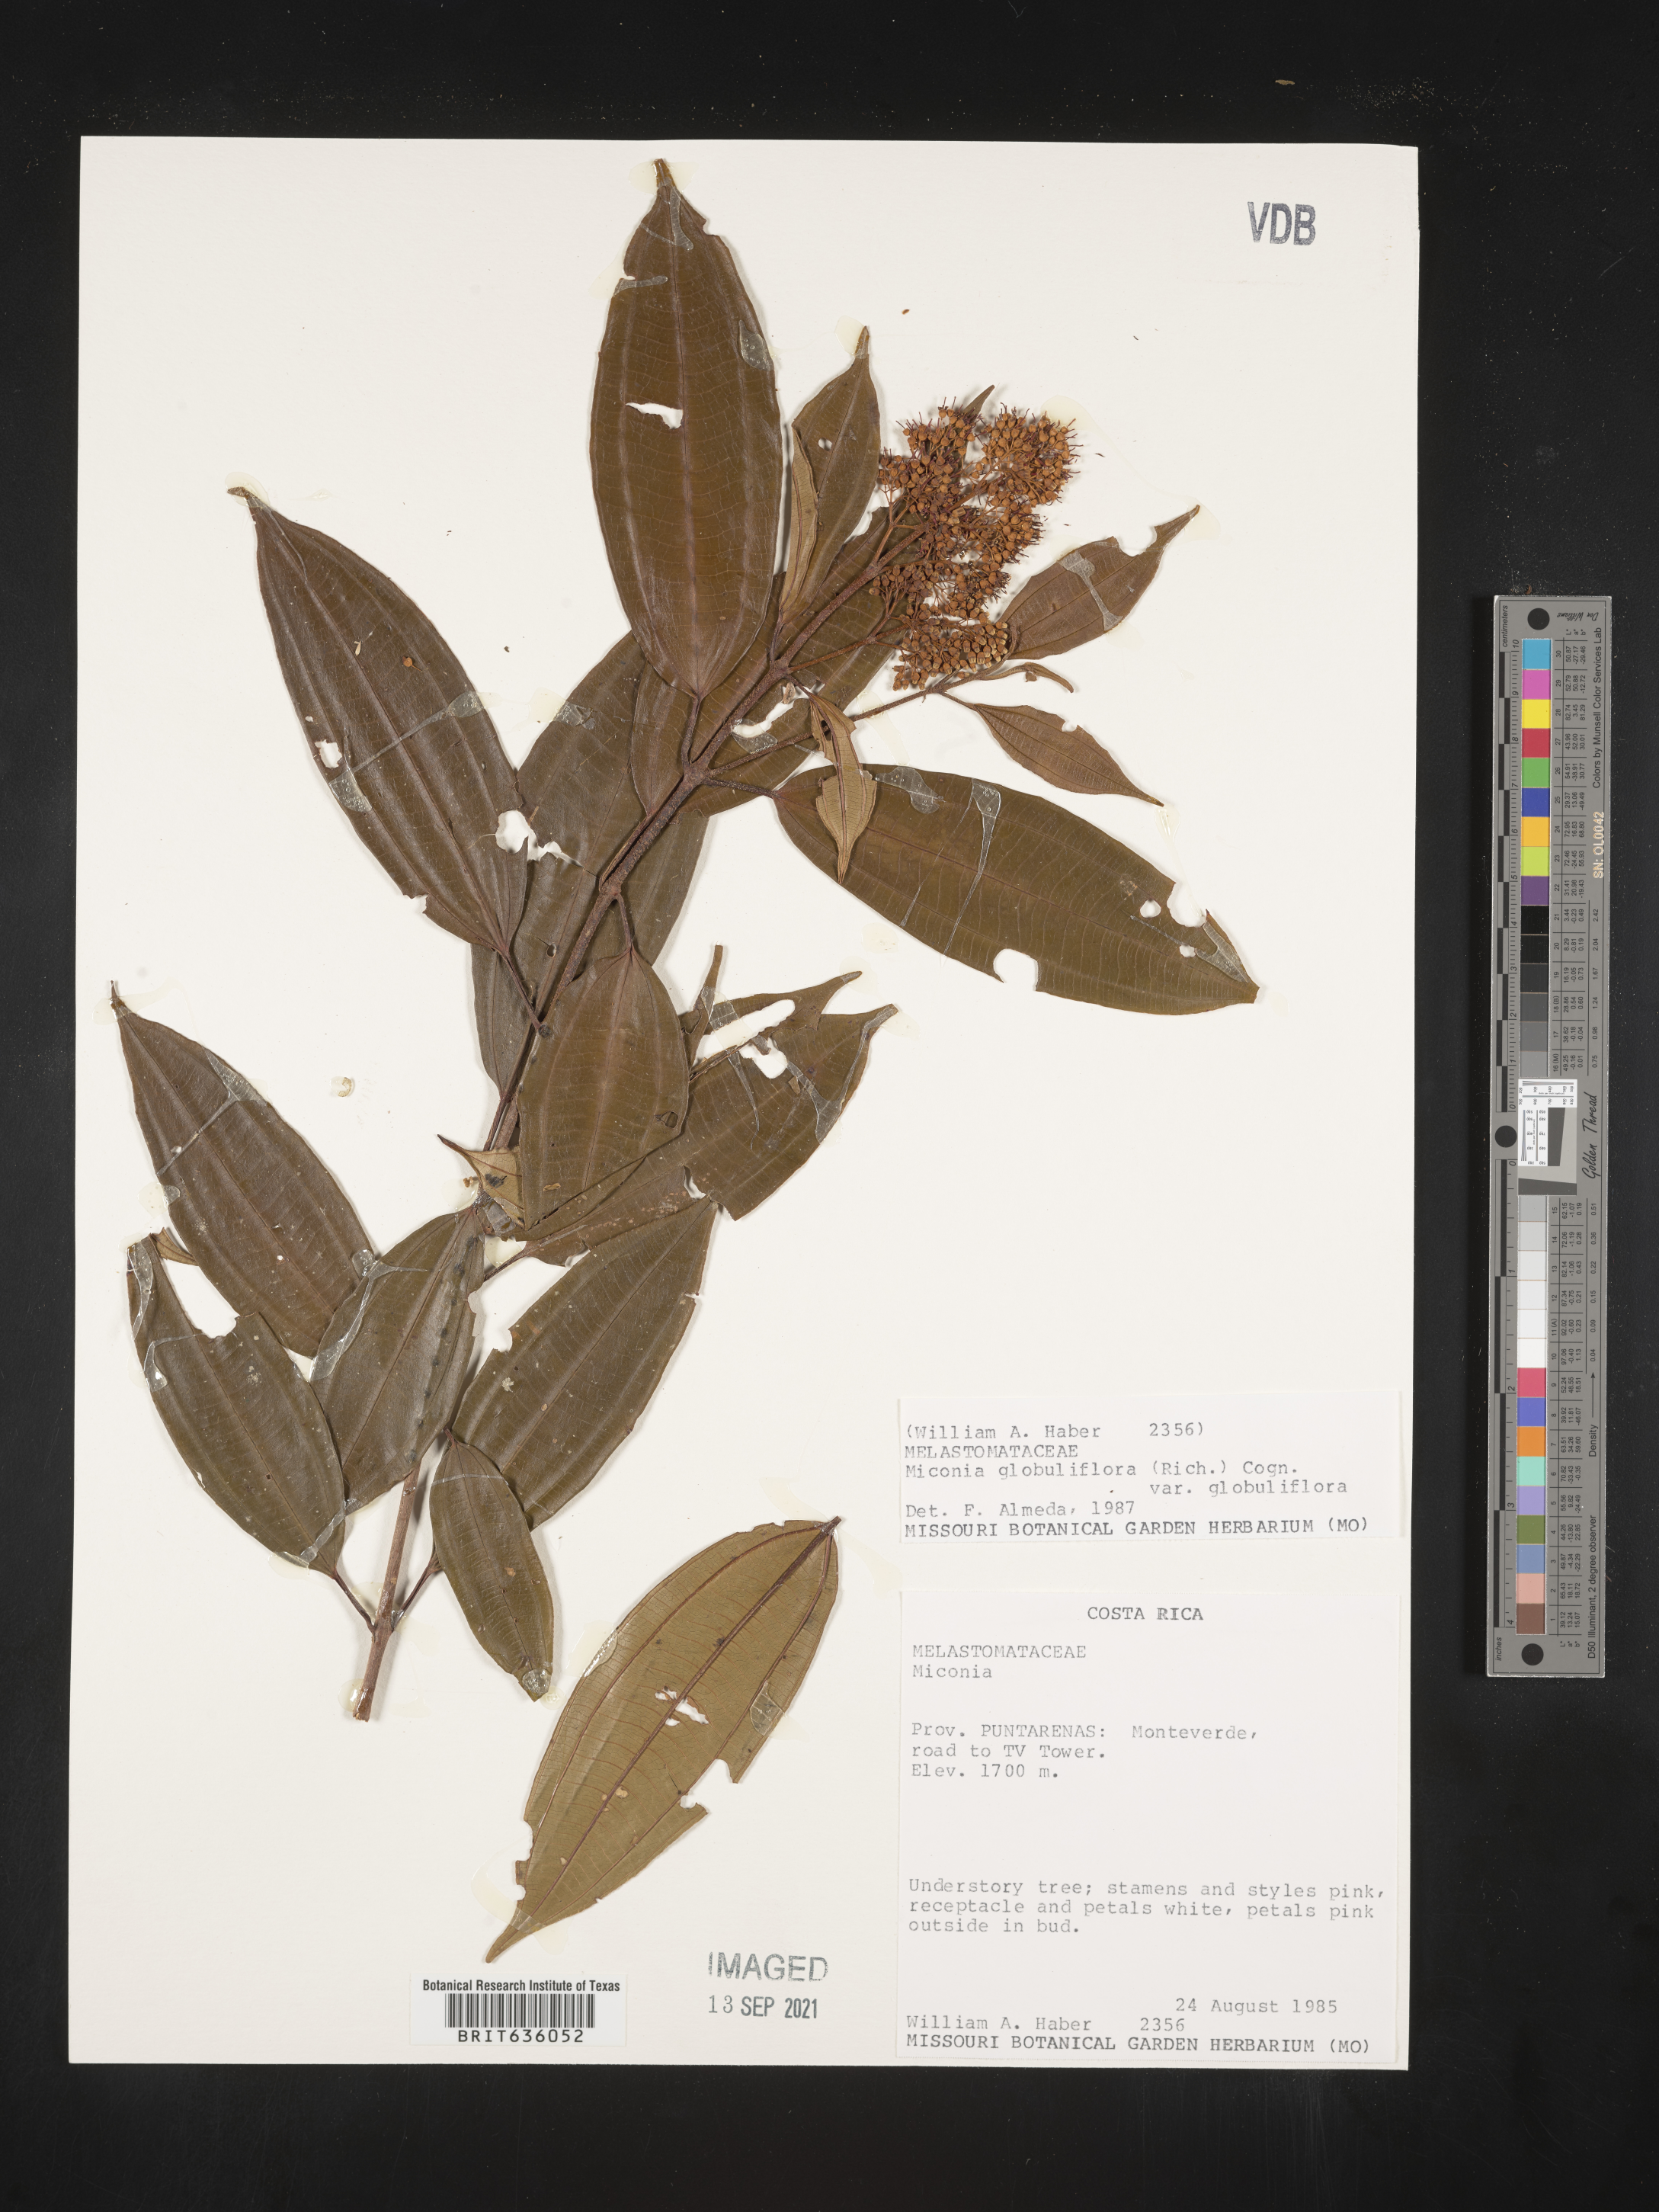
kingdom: Plantae
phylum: Tracheophyta
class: Magnoliopsida
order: Myrtales
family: Melastomataceae
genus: Miconia
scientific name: Miconia
